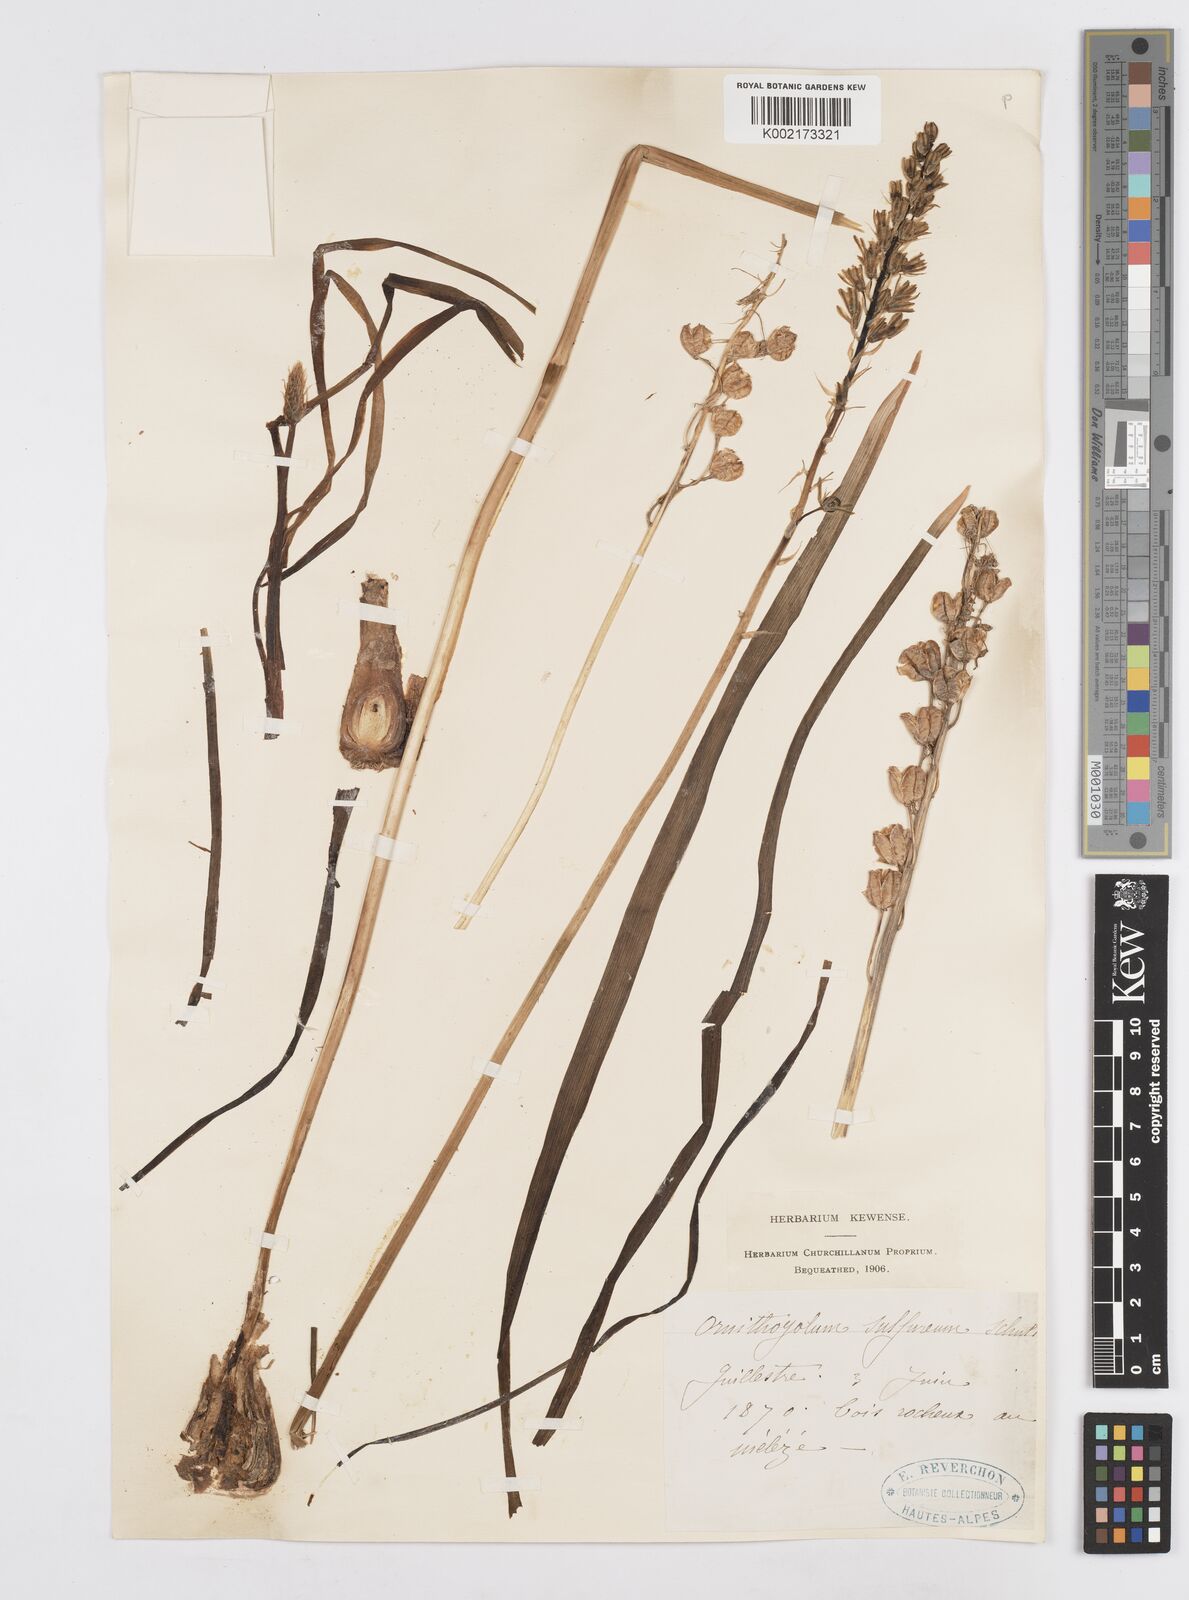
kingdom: Plantae
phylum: Tracheophyta
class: Liliopsida
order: Asparagales
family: Asparagaceae
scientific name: Asparagaceae
